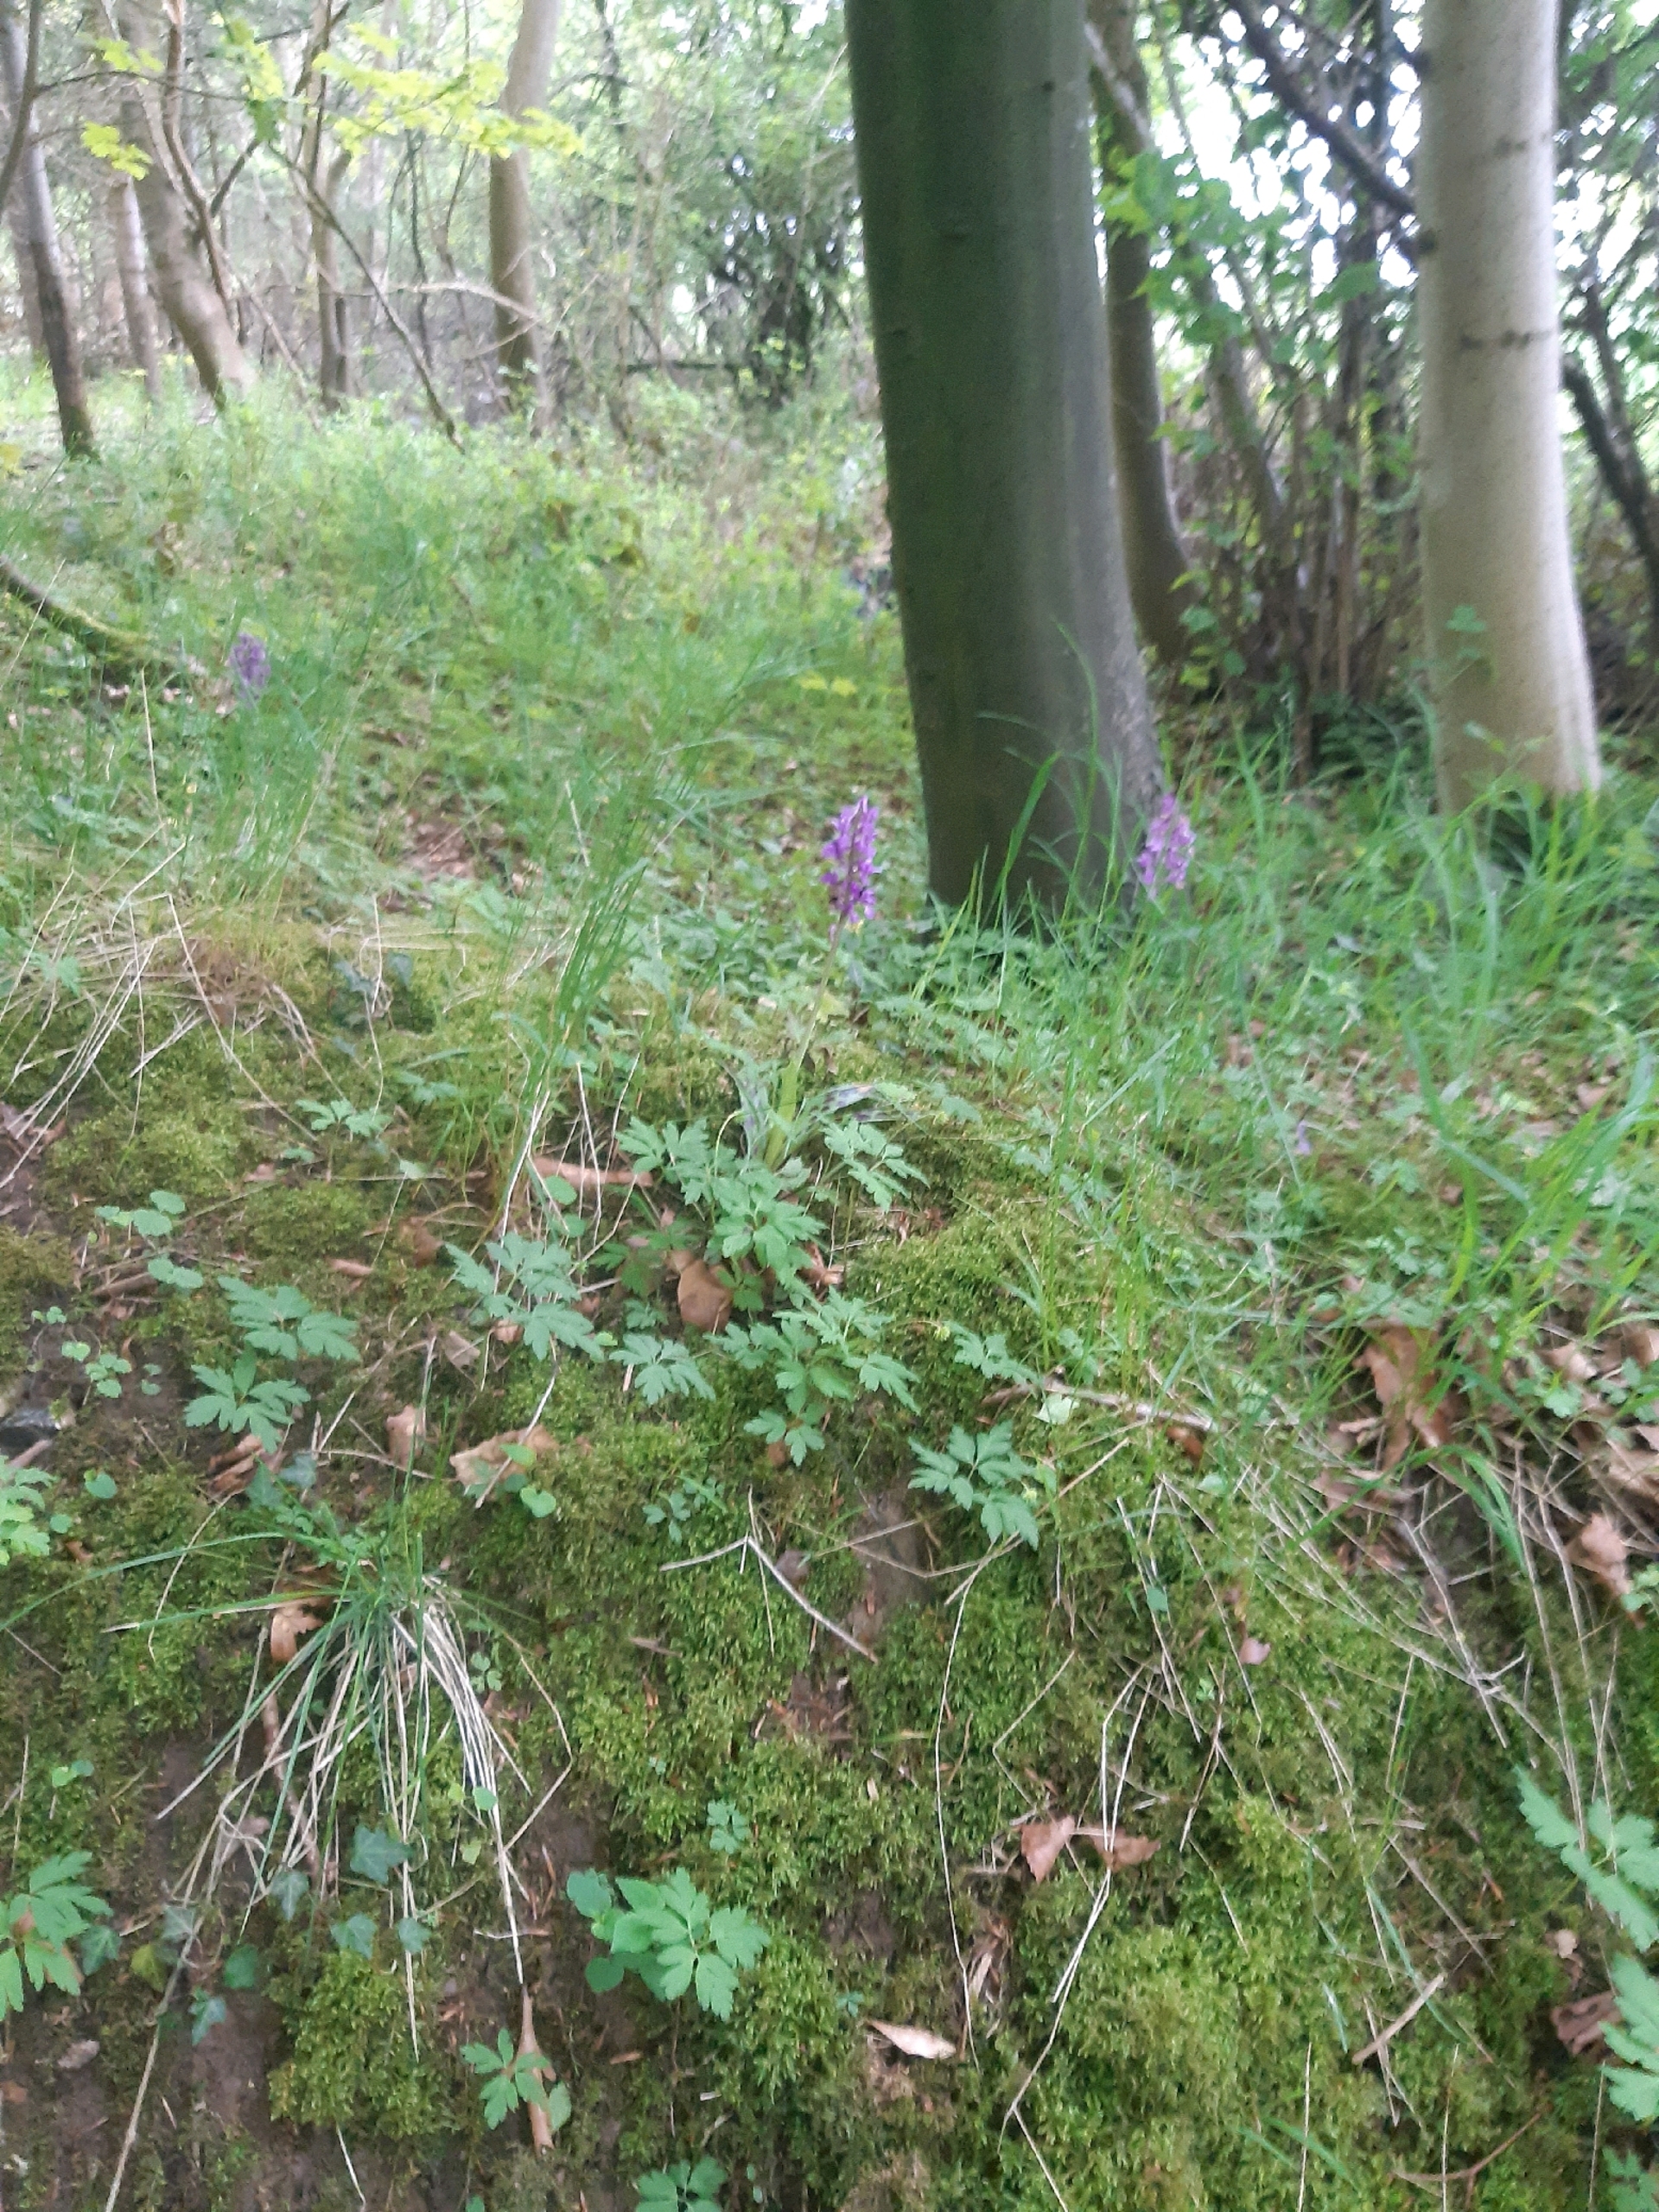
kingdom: Plantae
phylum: Tracheophyta
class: Liliopsida
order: Asparagales
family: Orchidaceae
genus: Orchis
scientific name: Orchis mascula
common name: Tyndakset gøgeurt
